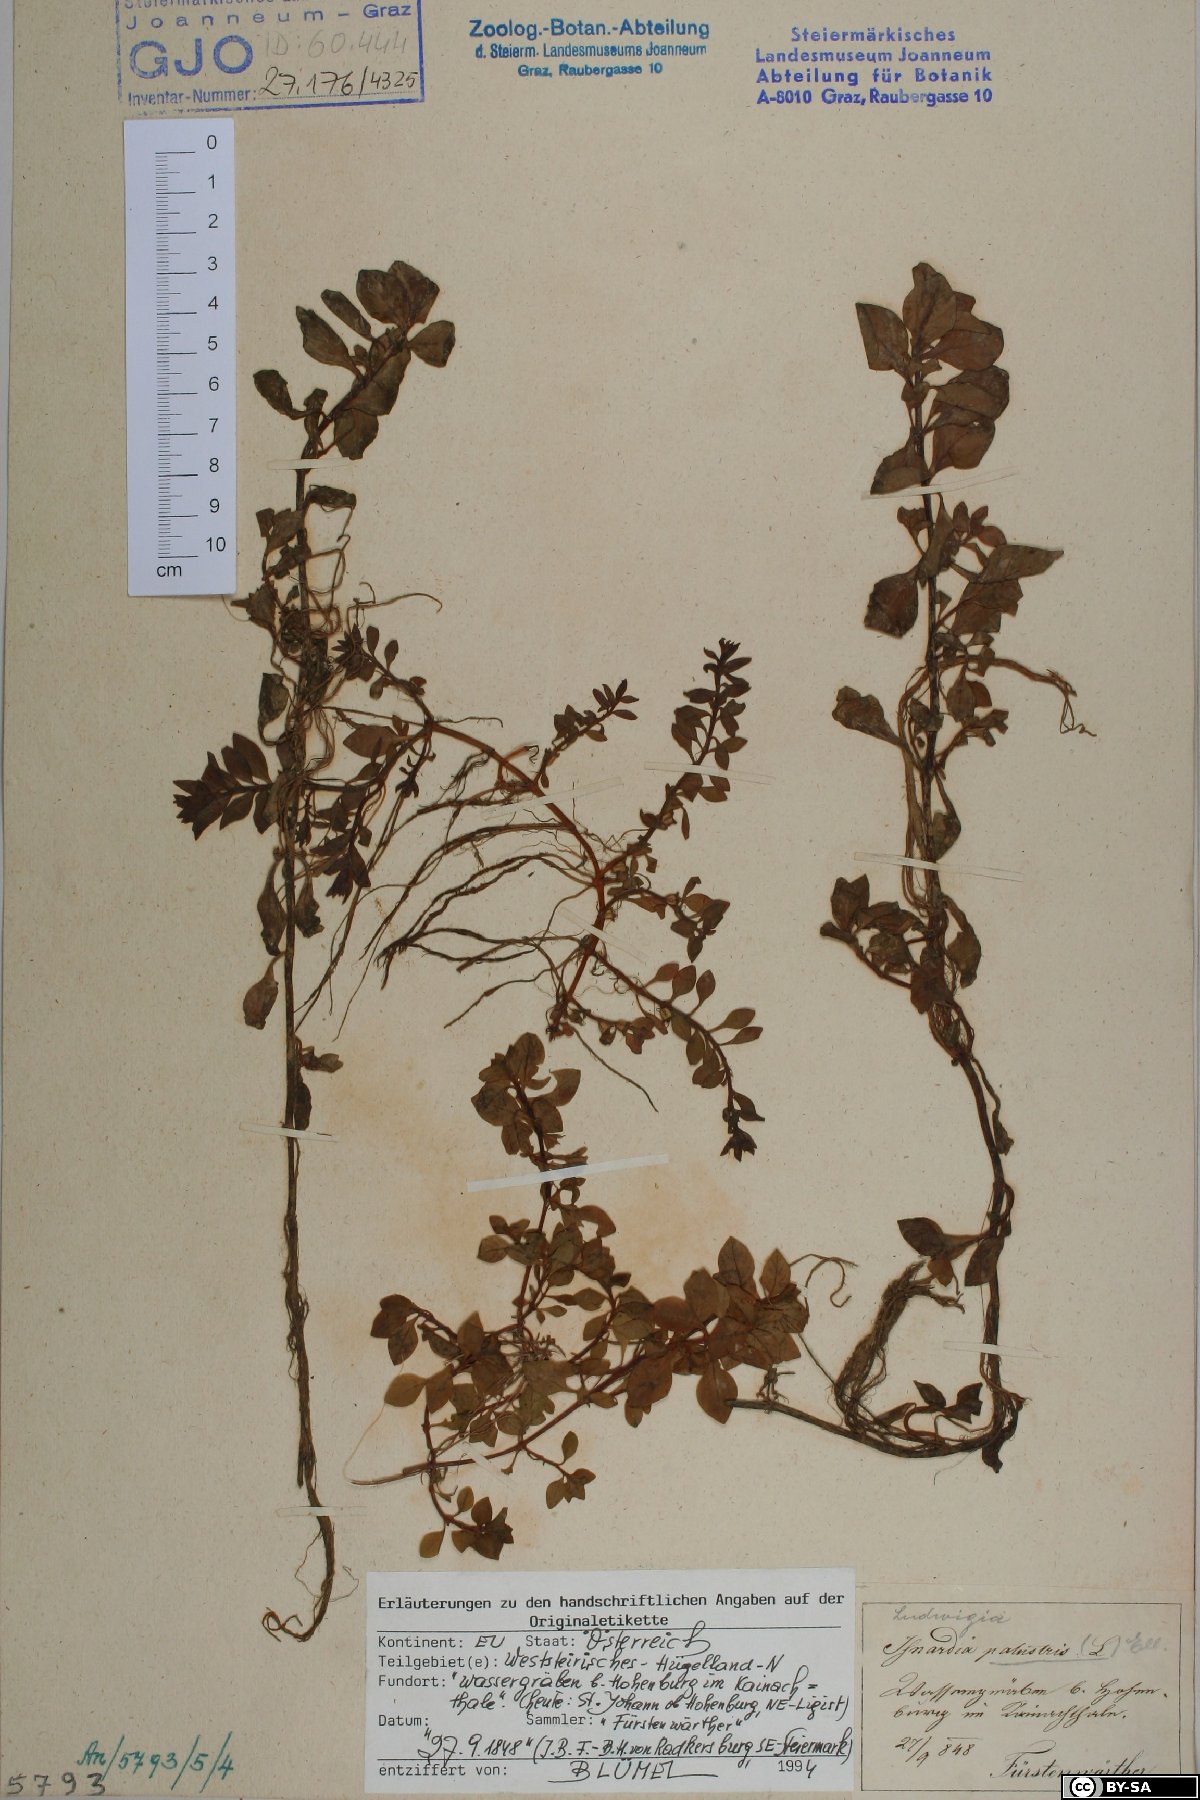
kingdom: Plantae
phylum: Tracheophyta
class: Magnoliopsida
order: Myrtales
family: Onagraceae
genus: Ludwigia
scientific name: Ludwigia palustris
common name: Hampshire-purslane
